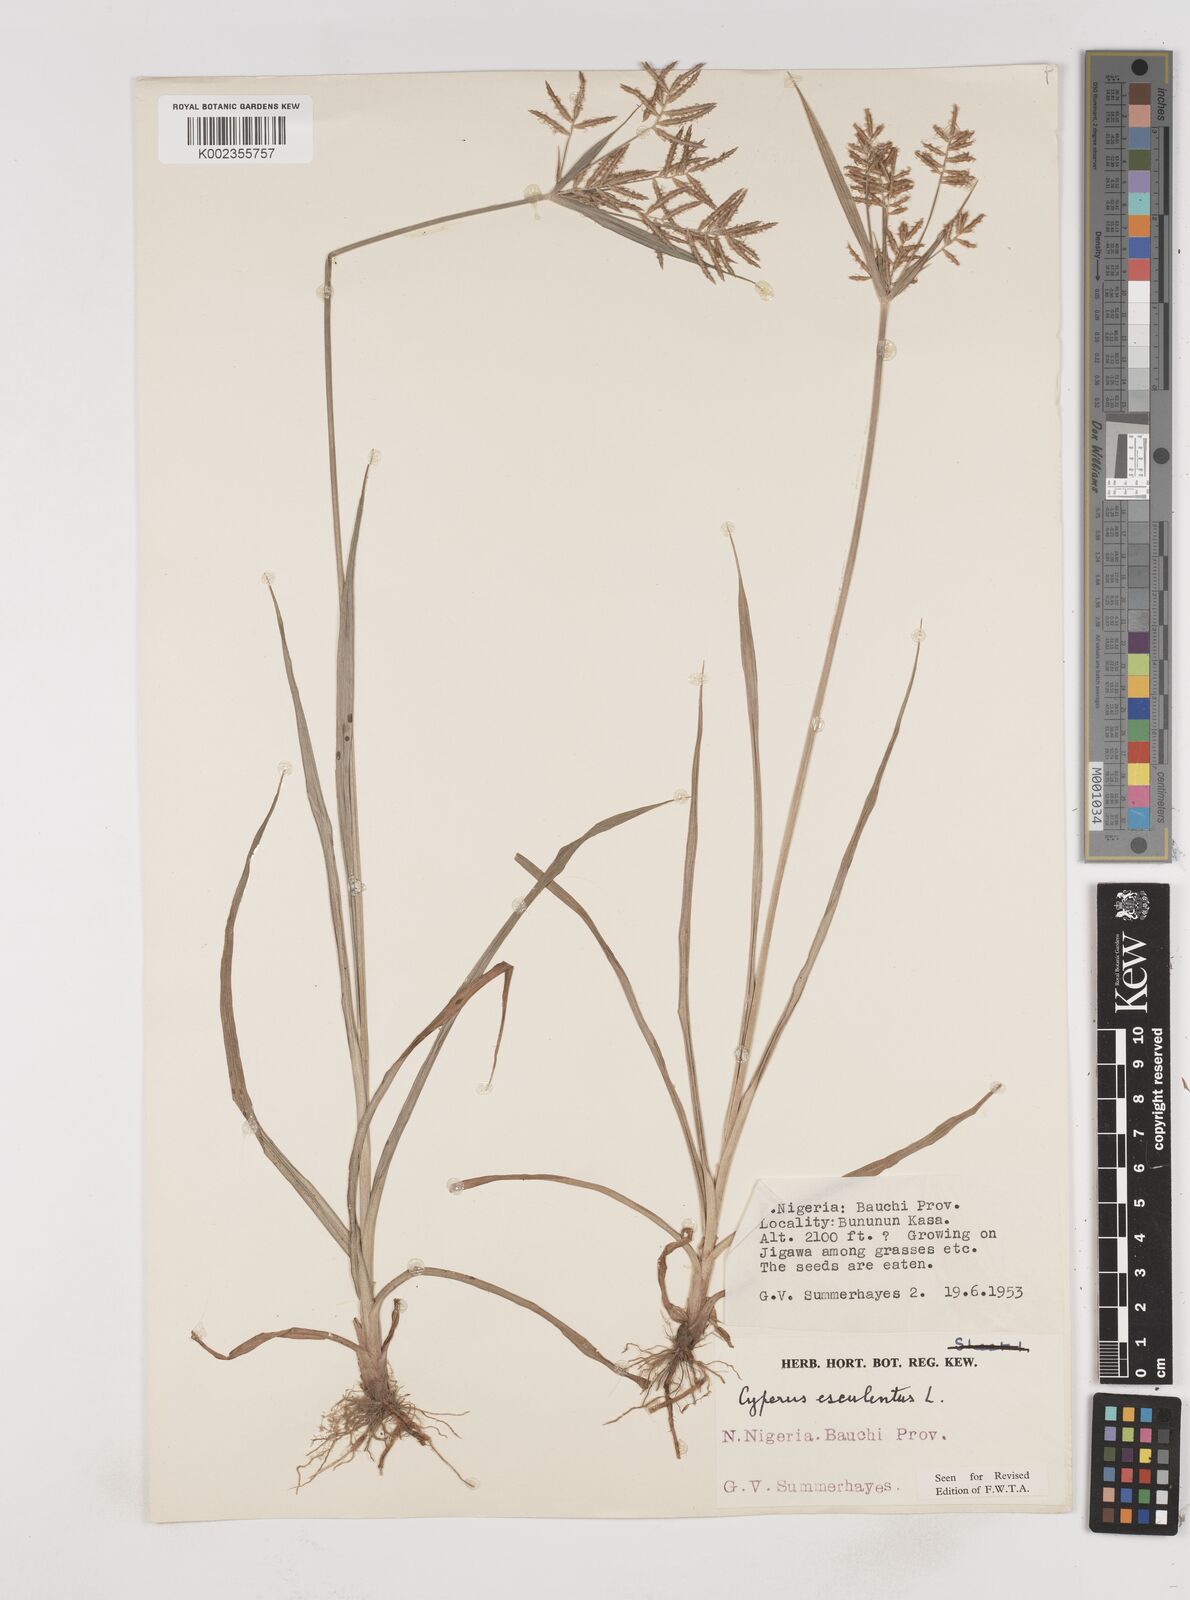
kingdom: Plantae
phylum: Tracheophyta
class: Liliopsida
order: Poales
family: Cyperaceae
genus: Cyperus
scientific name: Cyperus esculentus
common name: Yellow nutsedge
